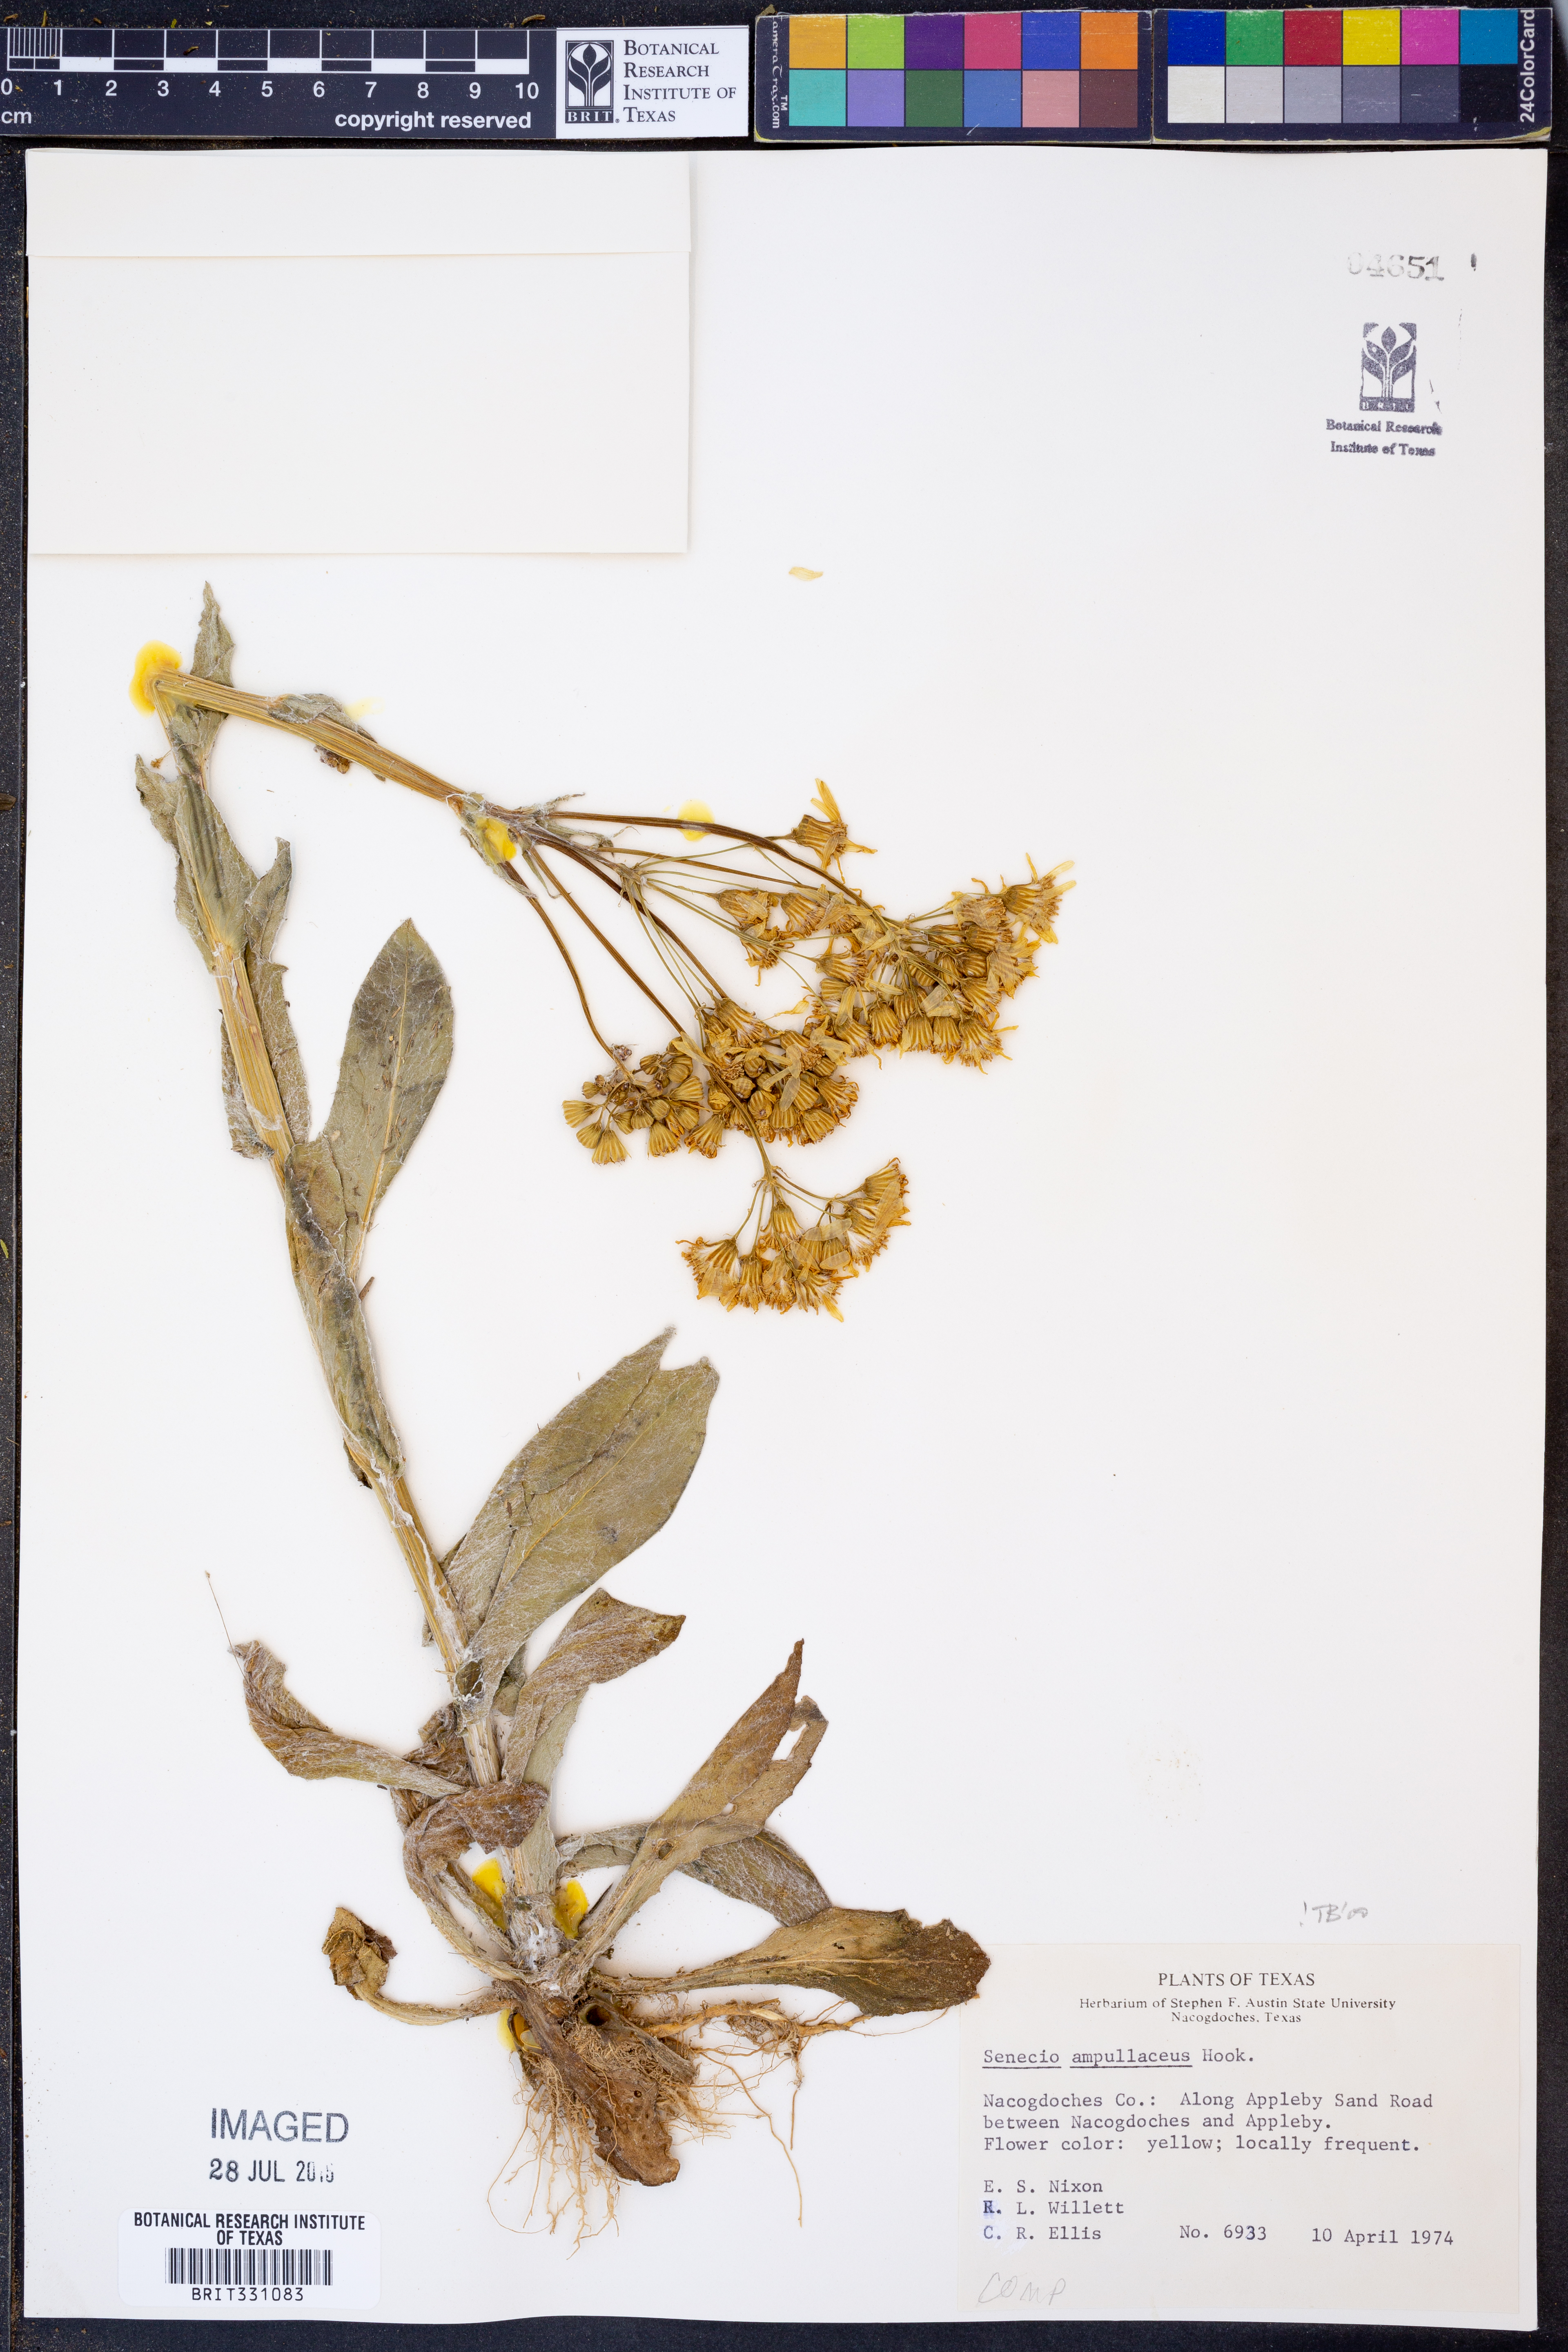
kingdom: Plantae
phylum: Tracheophyta
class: Magnoliopsida
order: Asterales
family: Asteraceae
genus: Senecio
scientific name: Senecio ampullaceus
